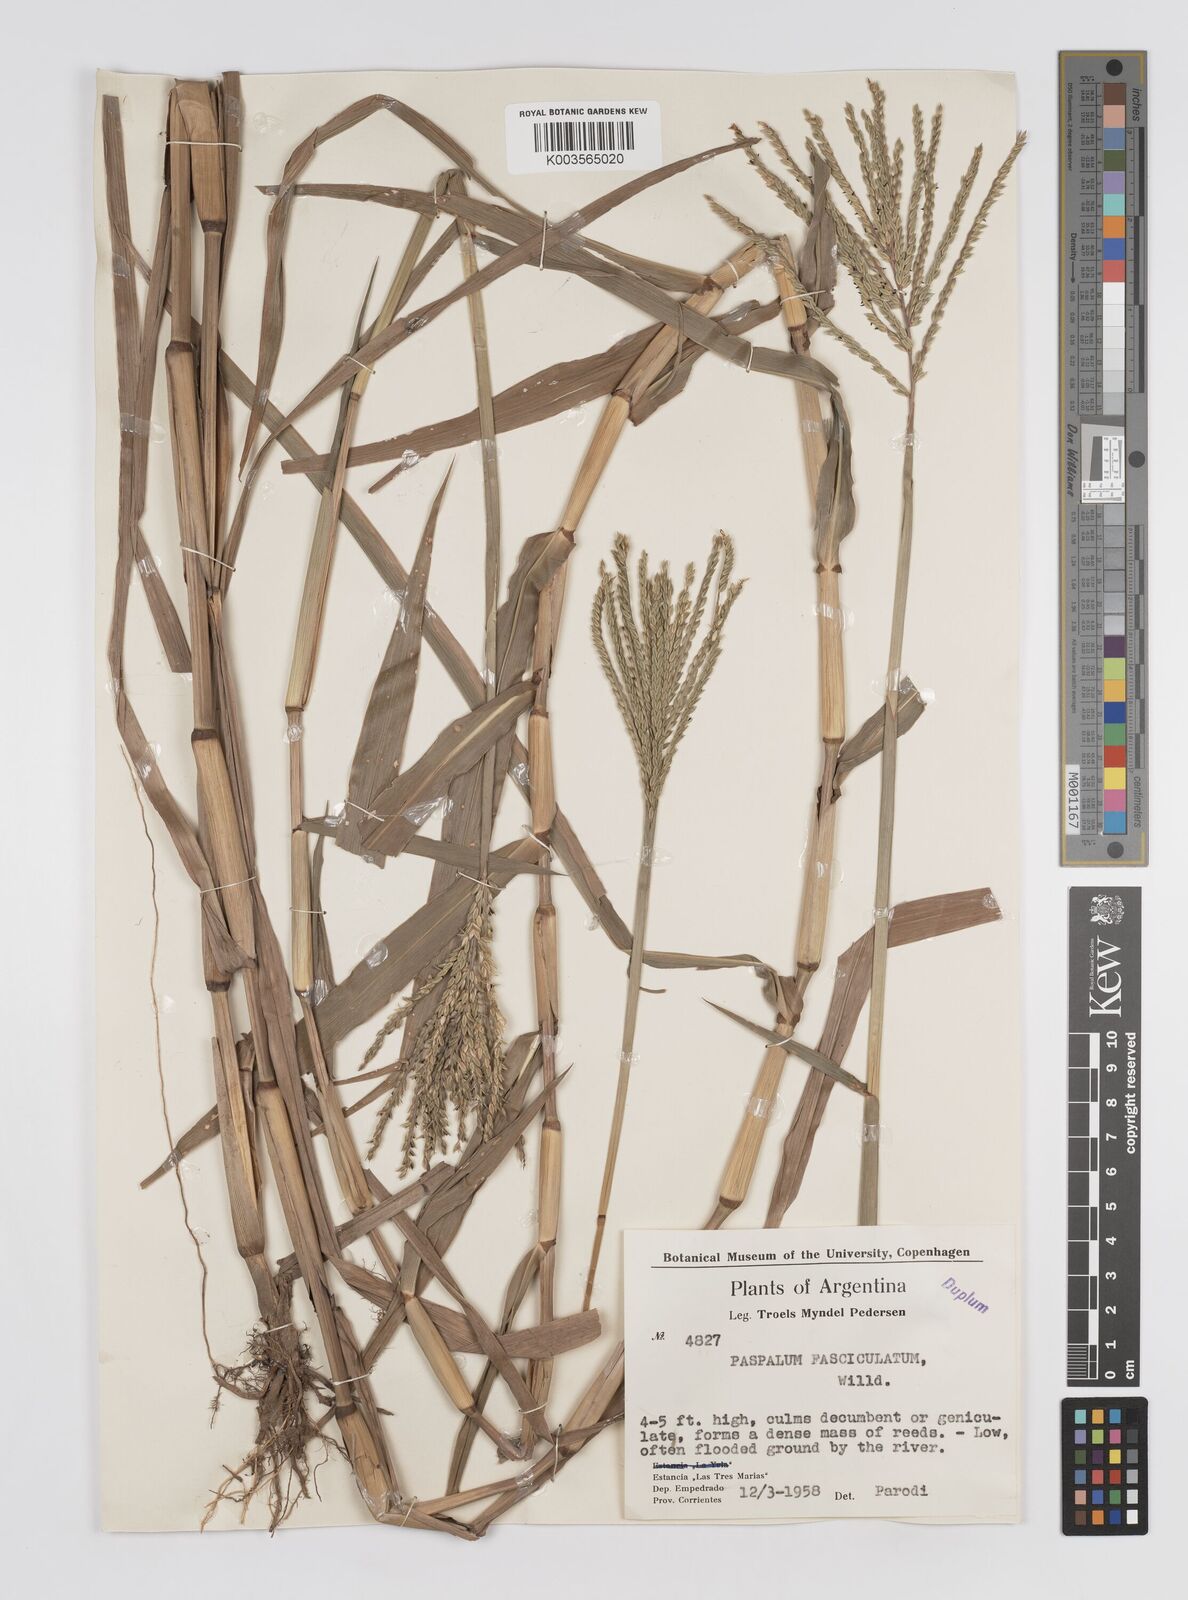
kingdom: Plantae
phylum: Tracheophyta
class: Liliopsida
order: Poales
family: Poaceae
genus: Paspalum
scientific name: Paspalum fasciculatum
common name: Bamboo grass
